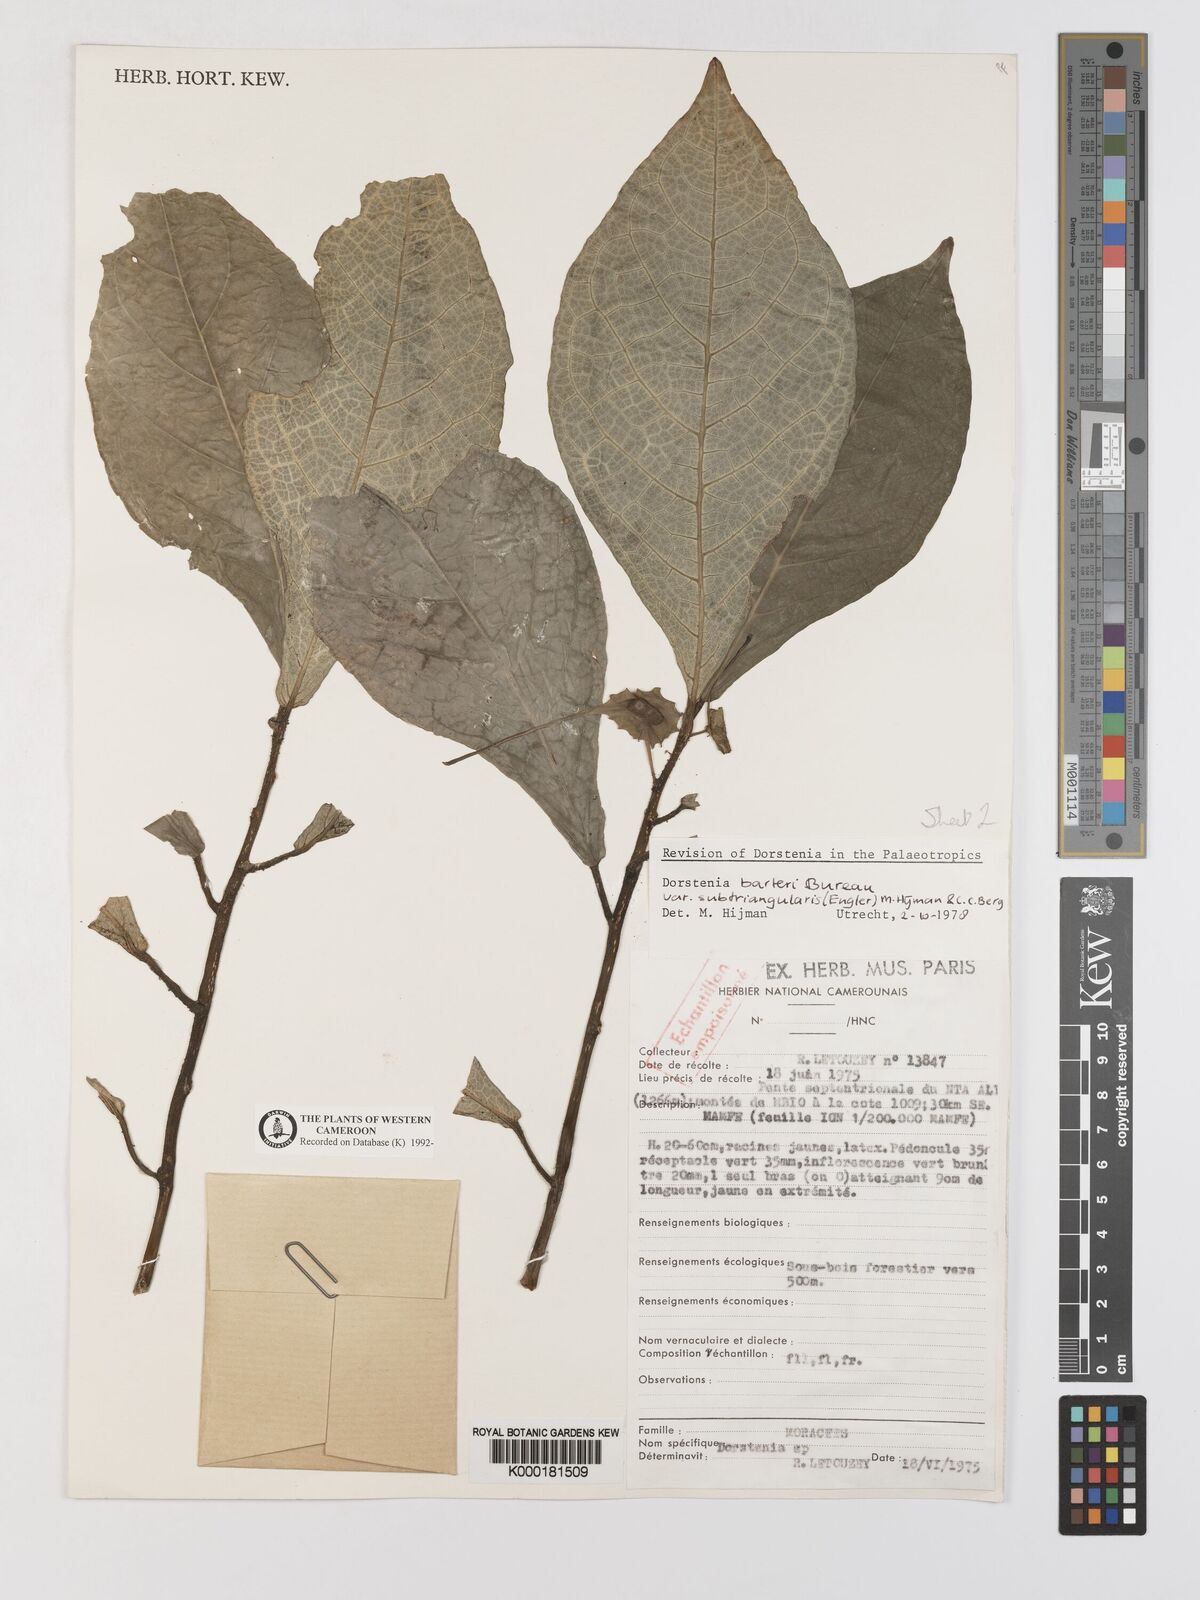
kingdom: Plantae
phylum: Tracheophyta
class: Magnoliopsida
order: Rosales
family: Moraceae
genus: Dorstenia
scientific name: Dorstenia barteri
